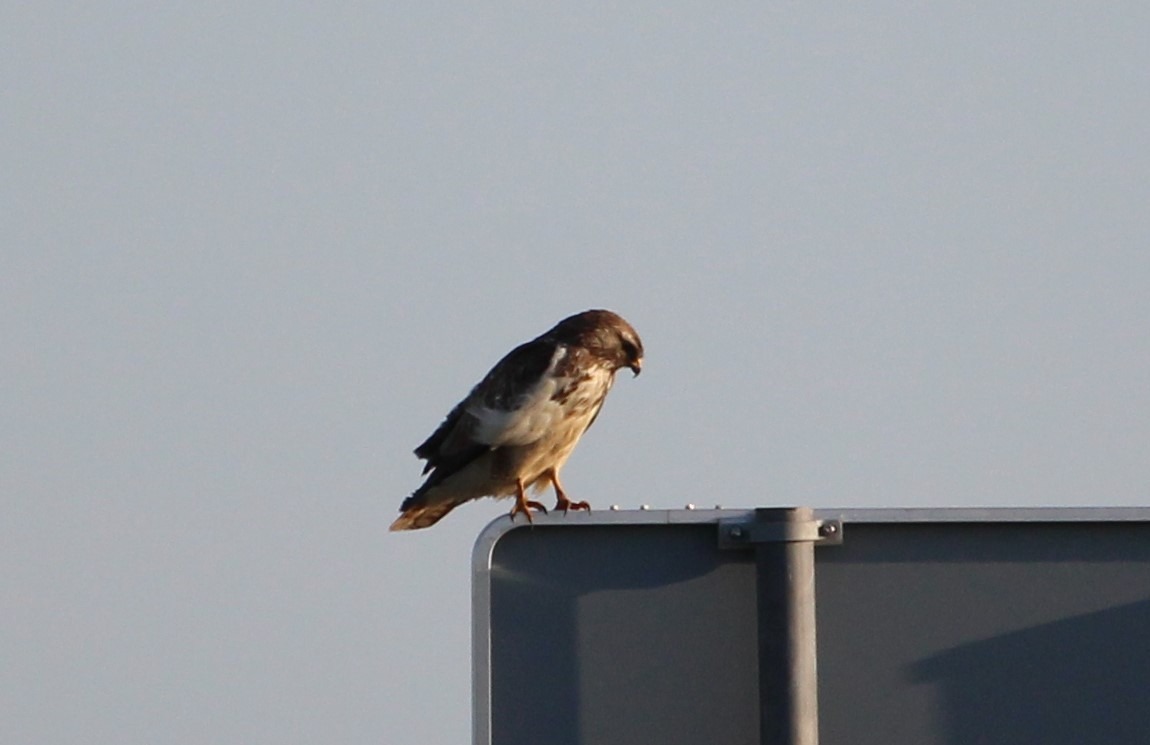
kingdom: Animalia
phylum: Chordata
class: Aves
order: Accipitriformes
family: Accipitridae
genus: Buteo
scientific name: Buteo buteo
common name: Musvåge
